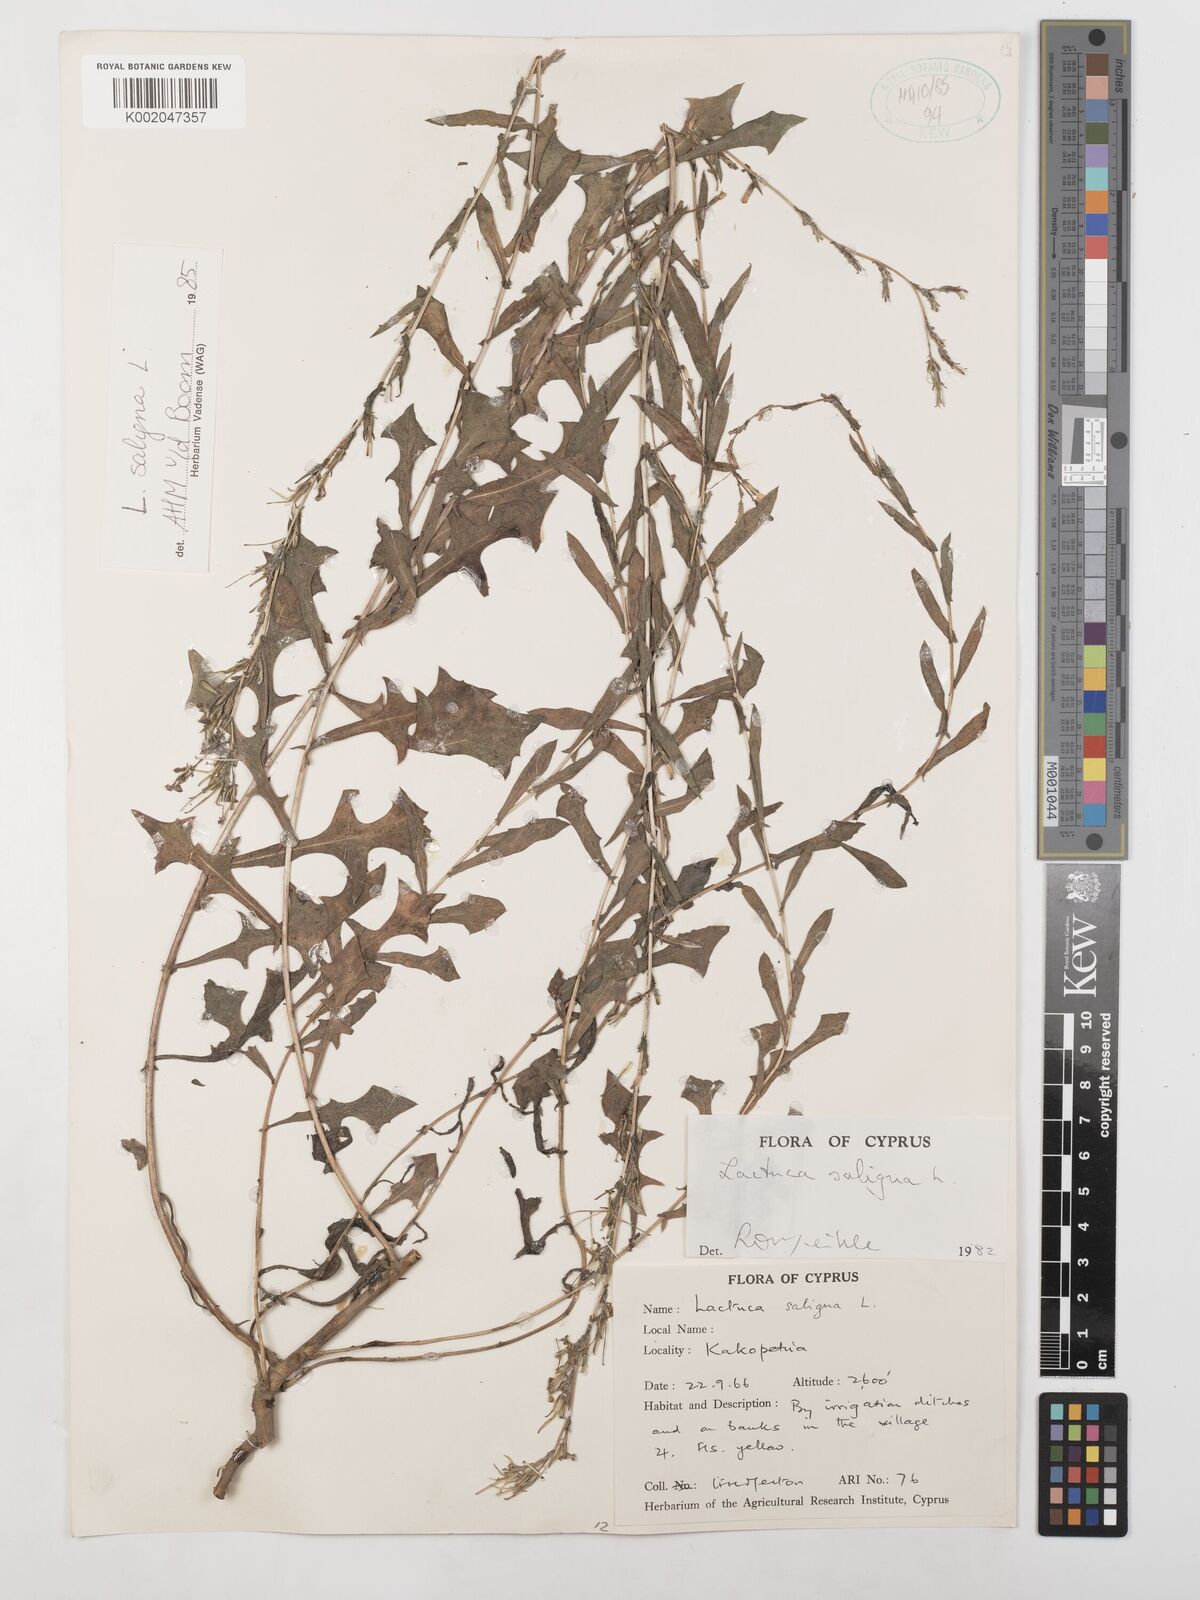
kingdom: Plantae
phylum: Tracheophyta
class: Magnoliopsida
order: Asterales
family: Asteraceae
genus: Lactuca
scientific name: Lactuca saligna
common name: Wild lettuce
